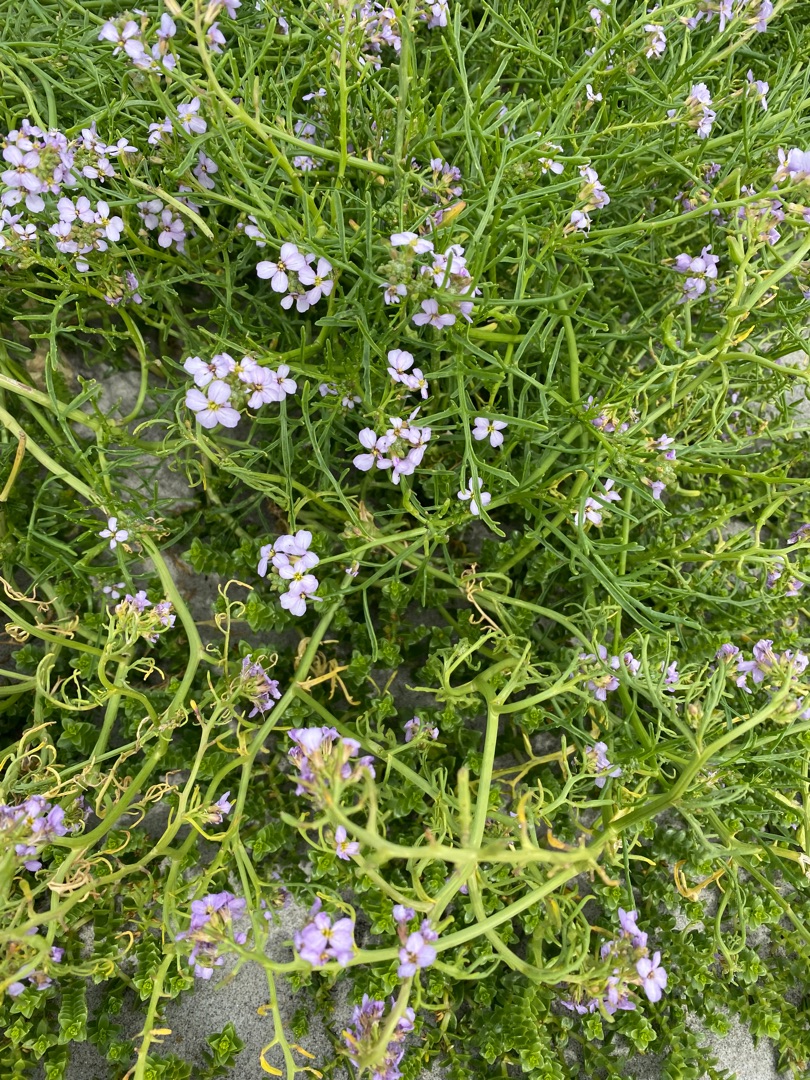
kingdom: Plantae
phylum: Tracheophyta
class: Magnoliopsida
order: Brassicales
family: Brassicaceae
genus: Cakile
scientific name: Cakile maritima
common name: Strandsennep
